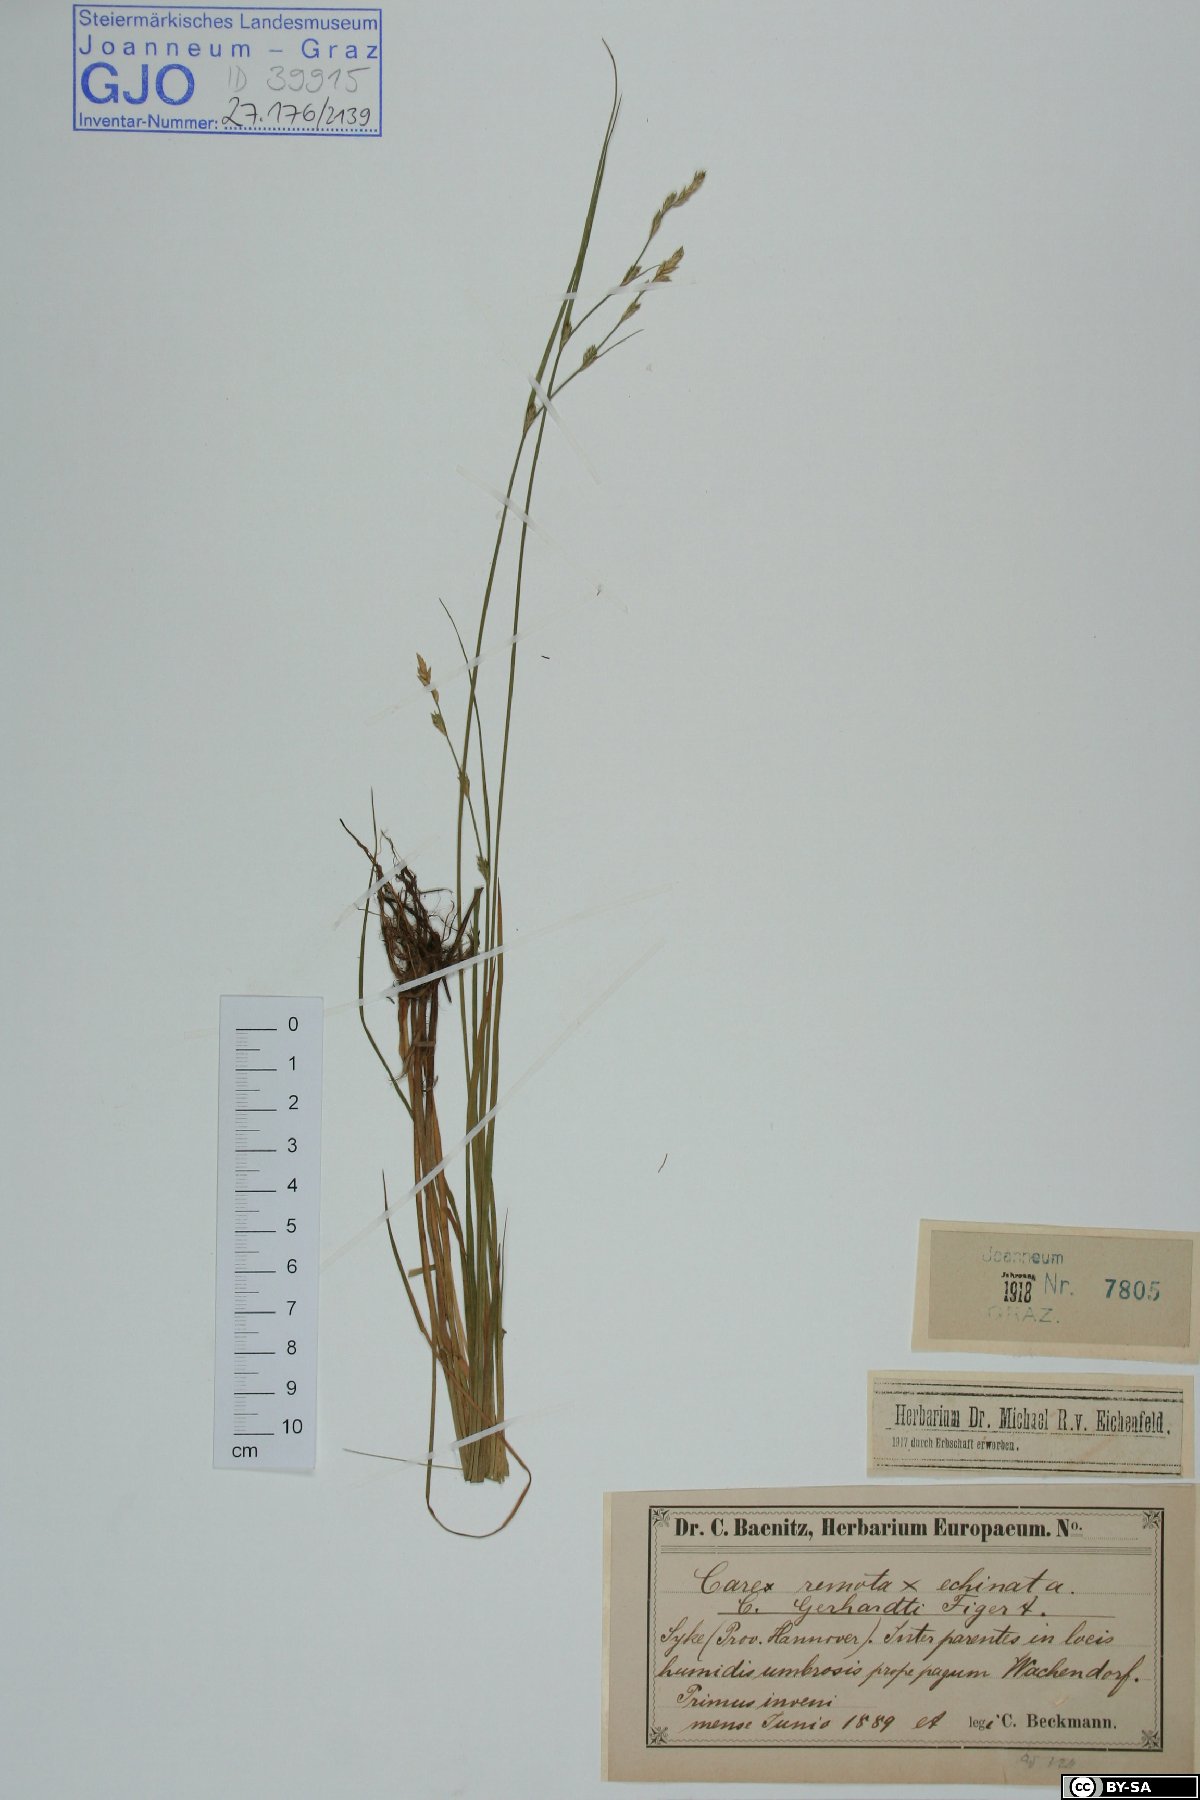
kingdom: Plantae
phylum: Tracheophyta
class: Liliopsida
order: Poales
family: Cyperaceae
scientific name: Cyperaceae
